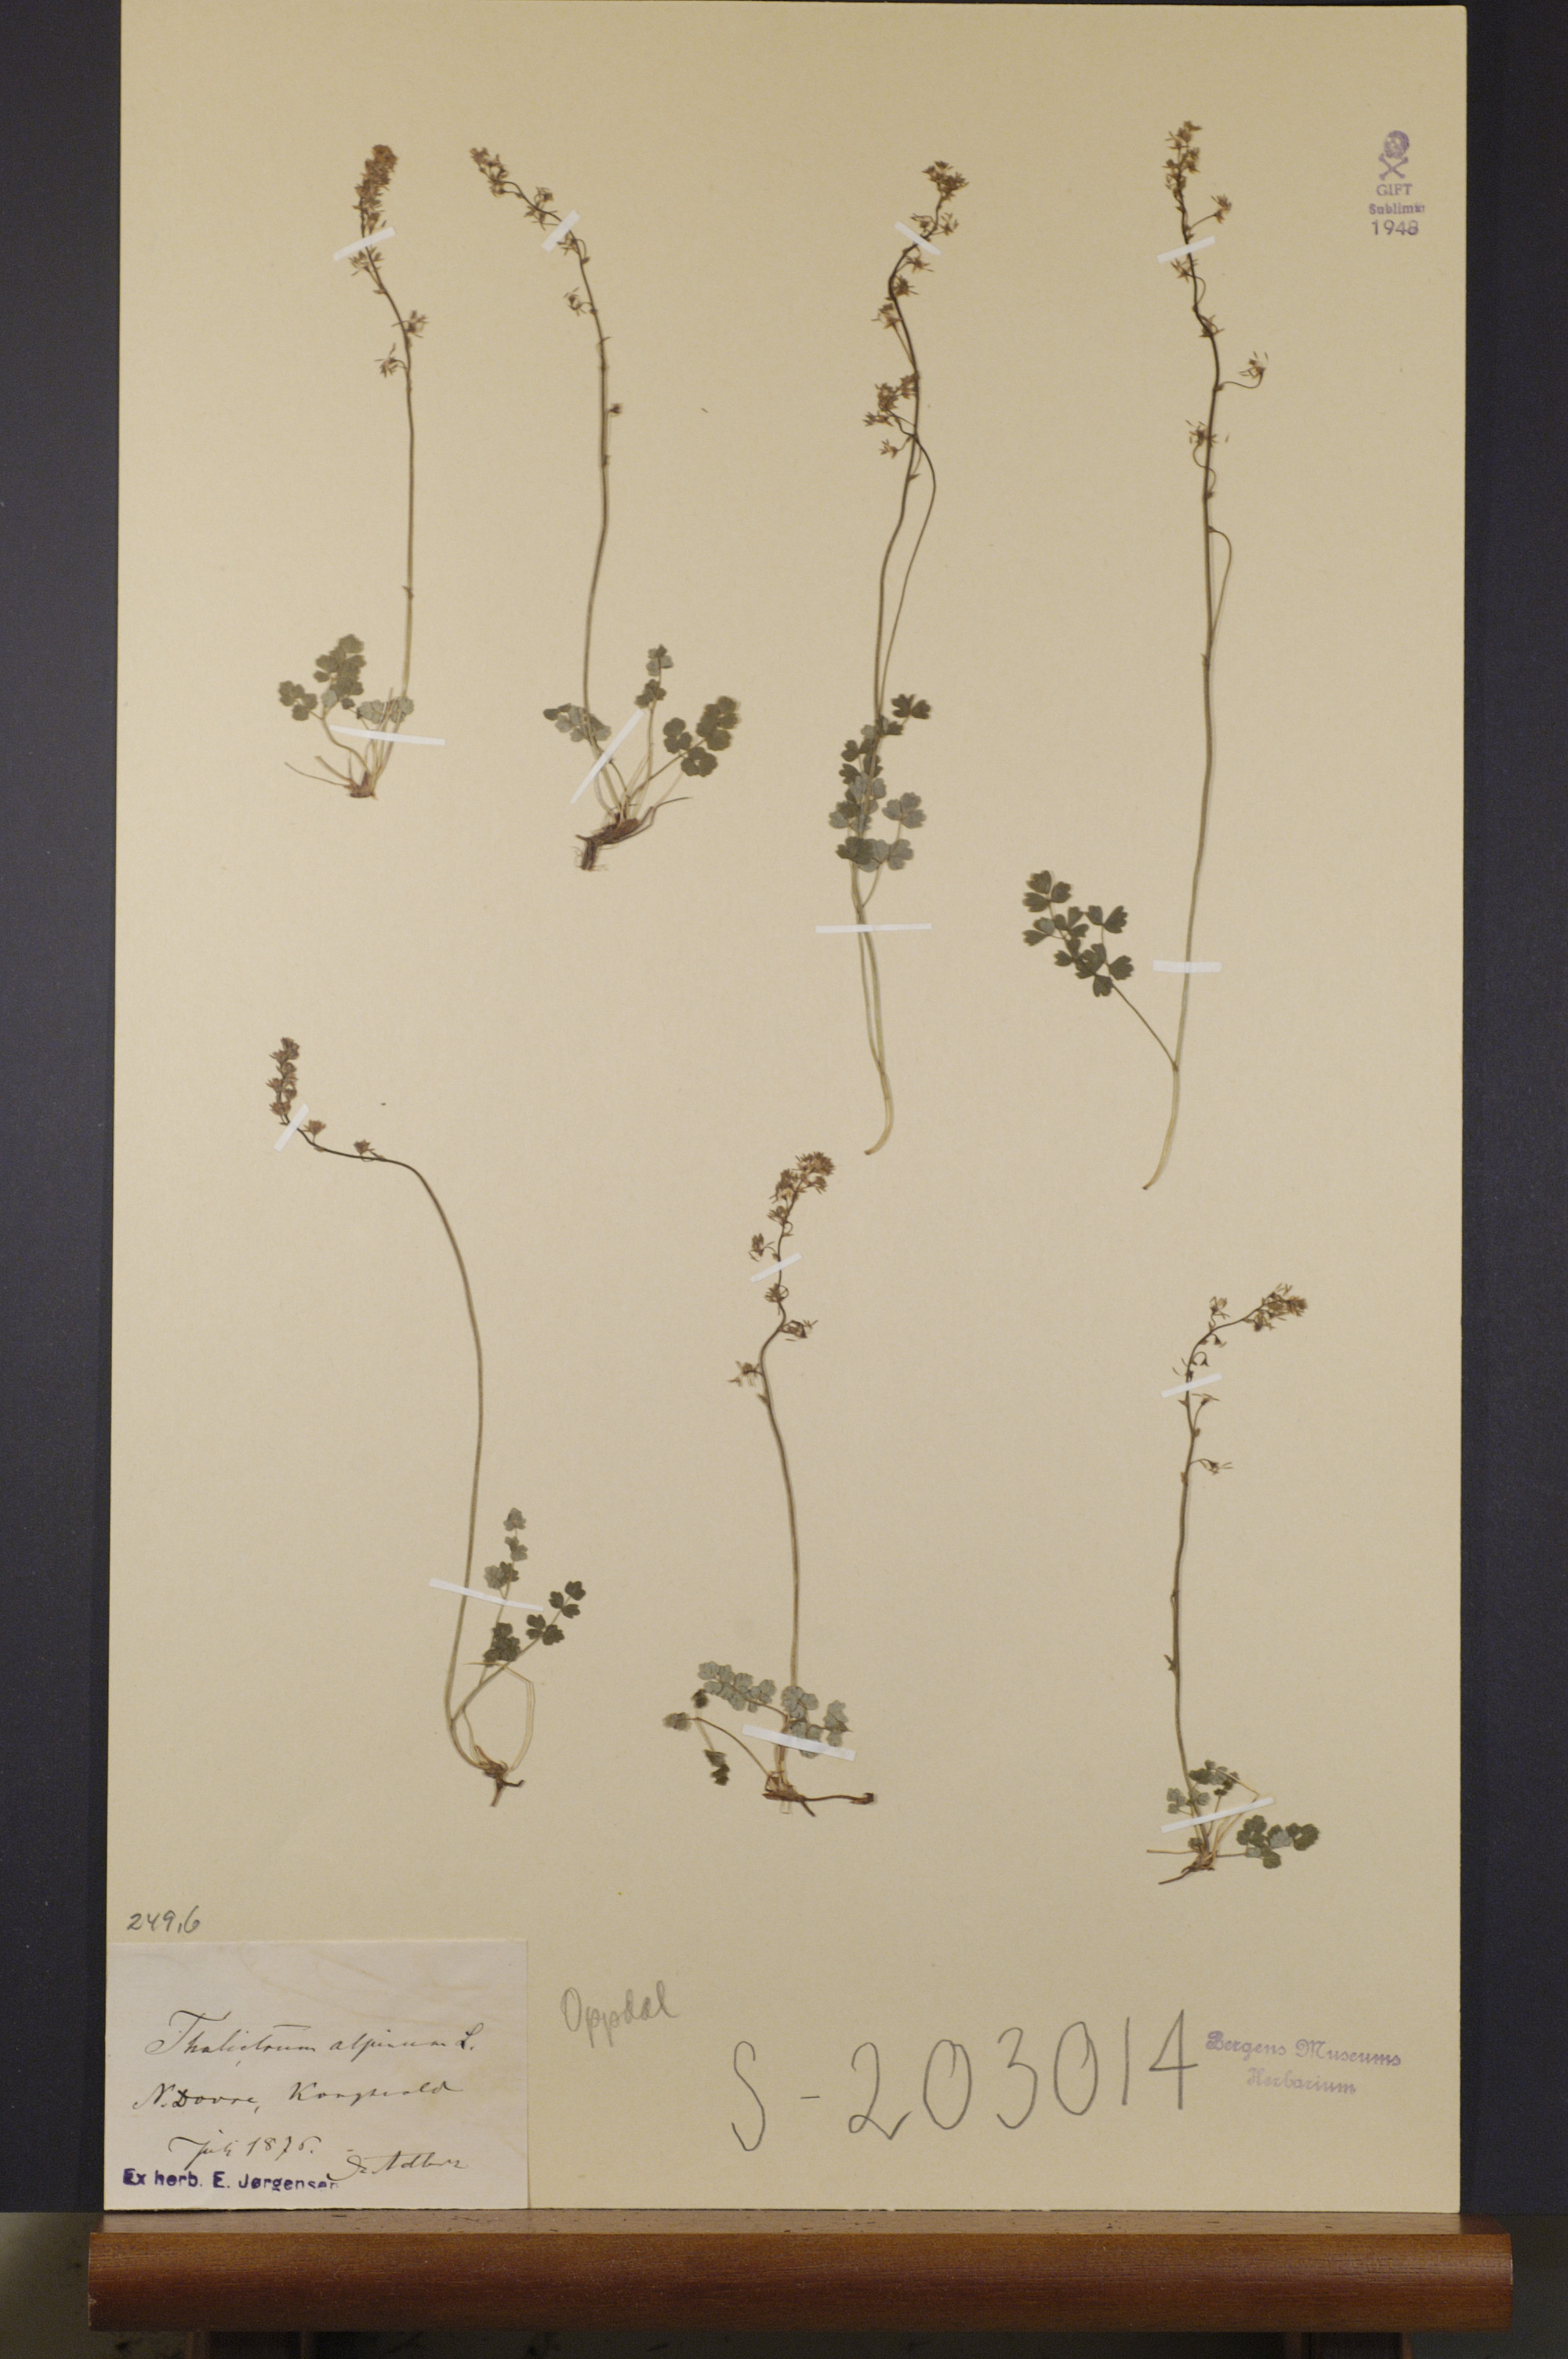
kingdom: Plantae
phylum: Tracheophyta
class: Magnoliopsida
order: Ranunculales
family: Ranunculaceae
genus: Thalictrum
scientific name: Thalictrum alpinum
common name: Alpine meadow-rue
